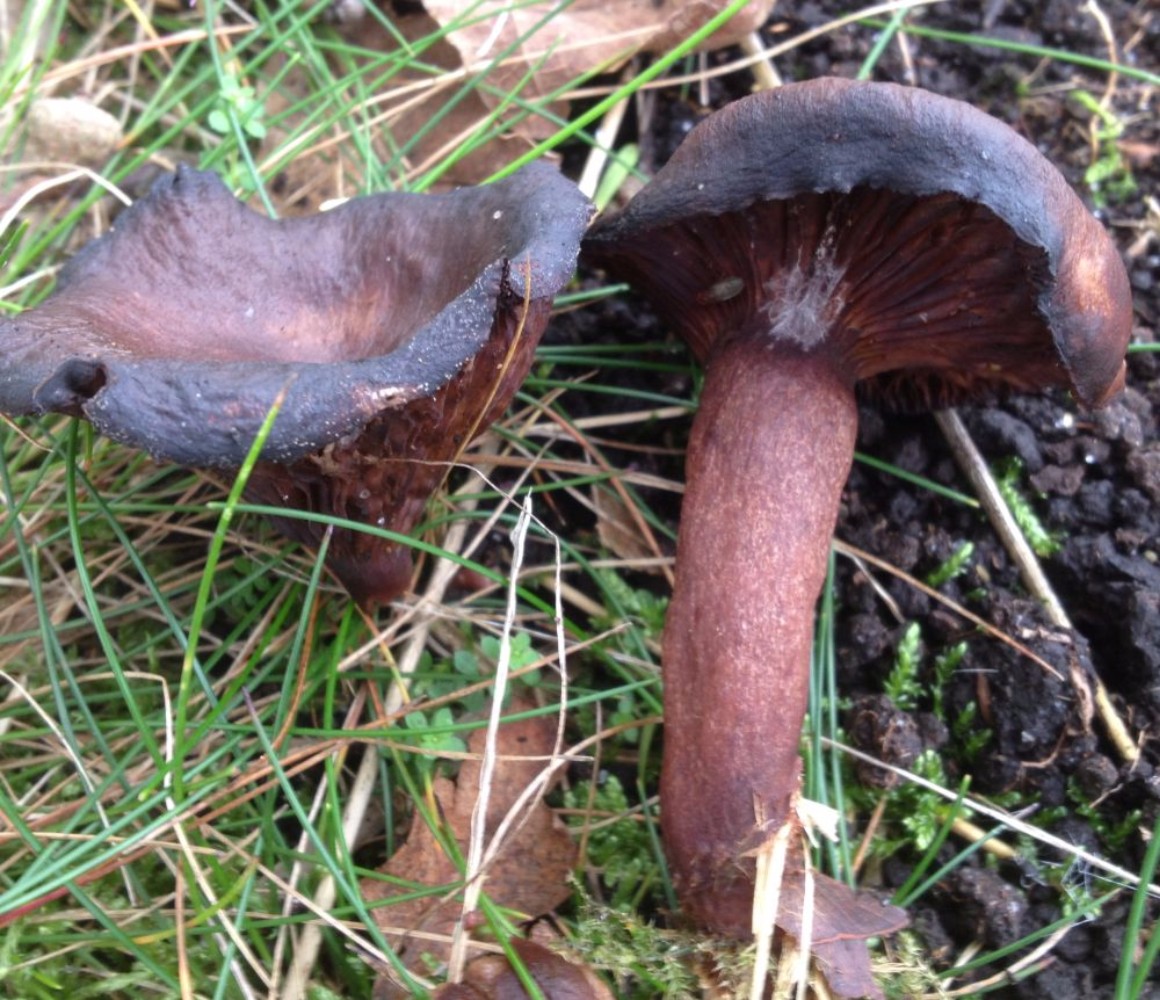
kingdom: Fungi
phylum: Basidiomycota
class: Agaricomycetes
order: Russulales
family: Russulaceae
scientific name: Russulaceae
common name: skørhatfamilien
